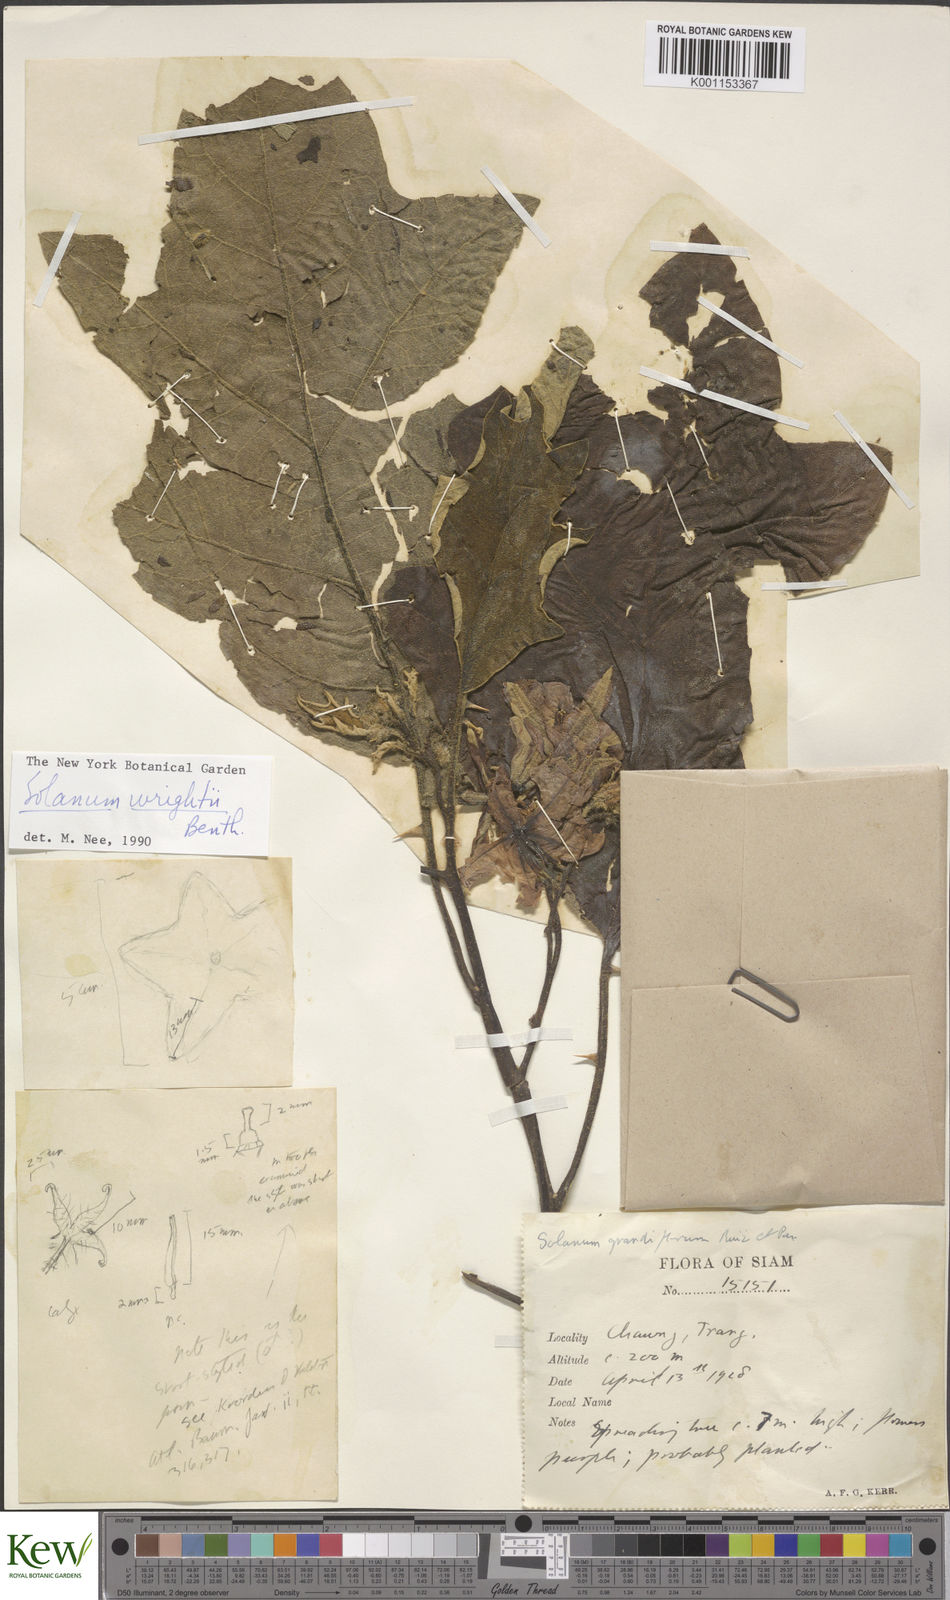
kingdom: Plantae
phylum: Tracheophyta
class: Magnoliopsida
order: Solanales
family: Solanaceae
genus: Solanum
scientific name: Solanum wrightii
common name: Brazilian potato-tree
